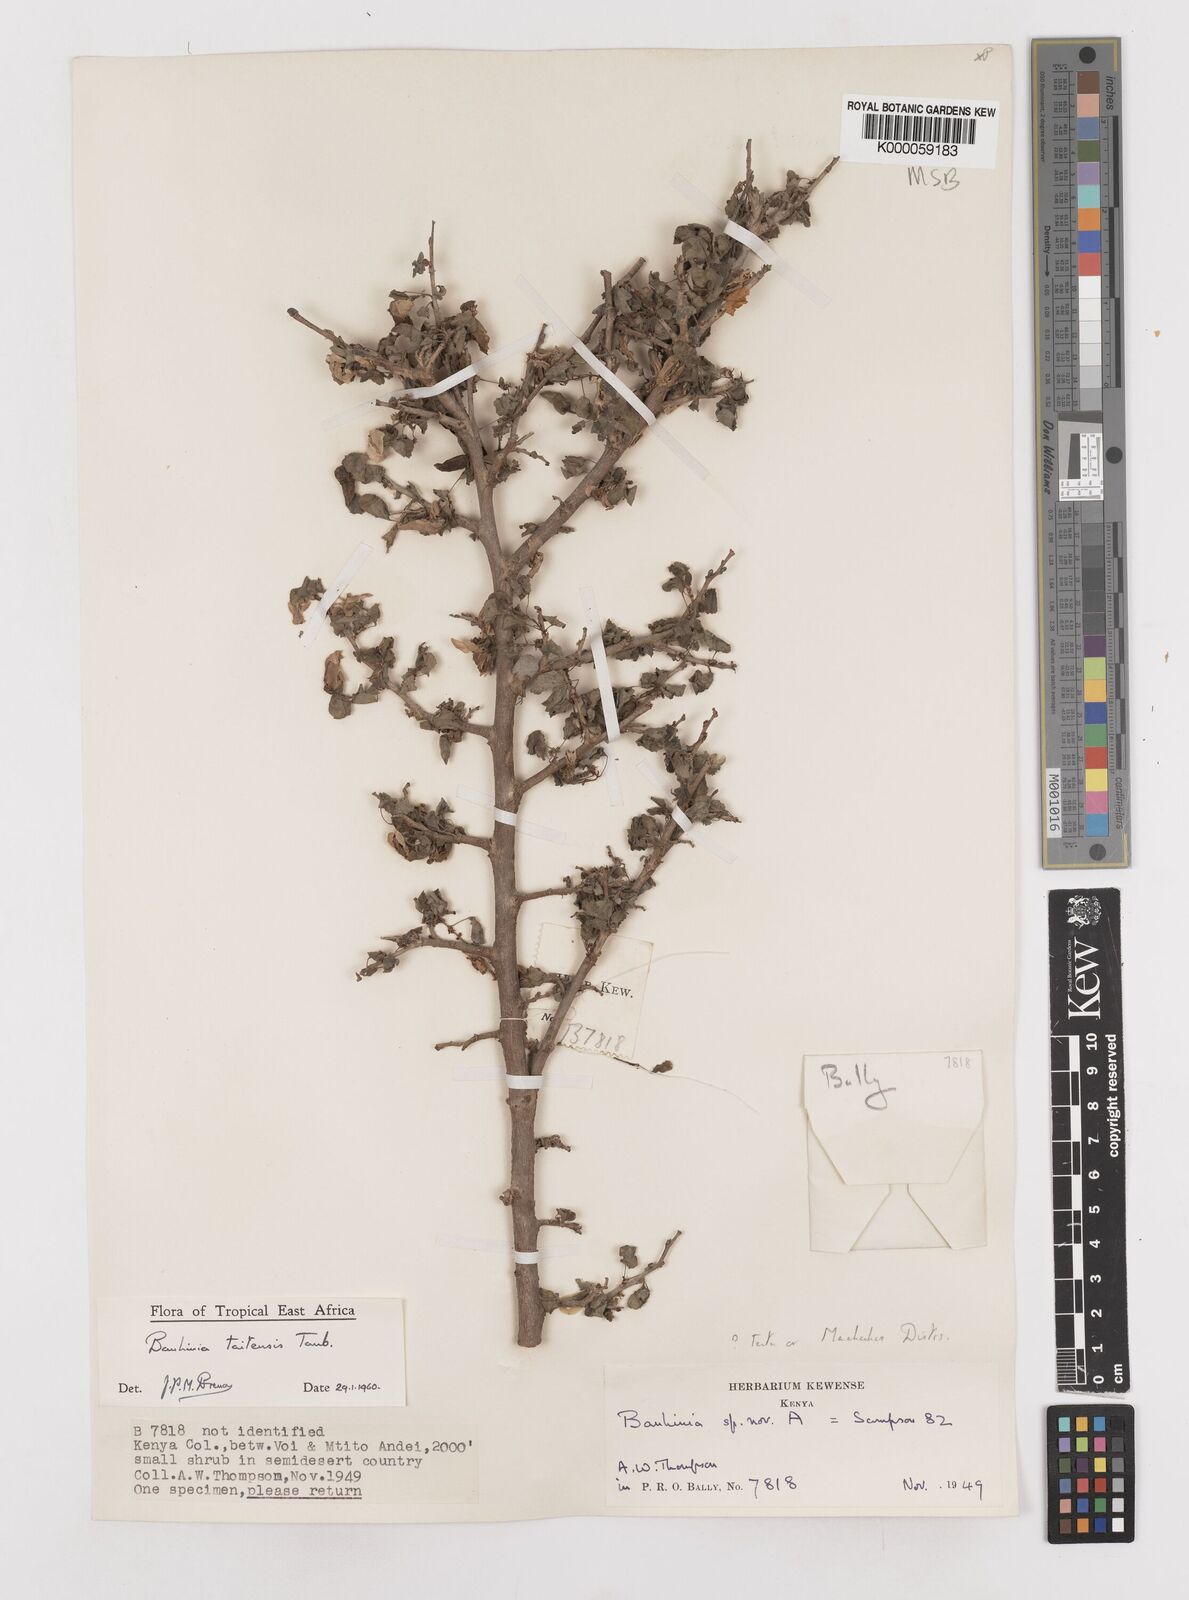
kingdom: Plantae
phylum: Tracheophyta
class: Magnoliopsida
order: Fabales
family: Fabaceae
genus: Bauhinia
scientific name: Bauhinia taitensis
